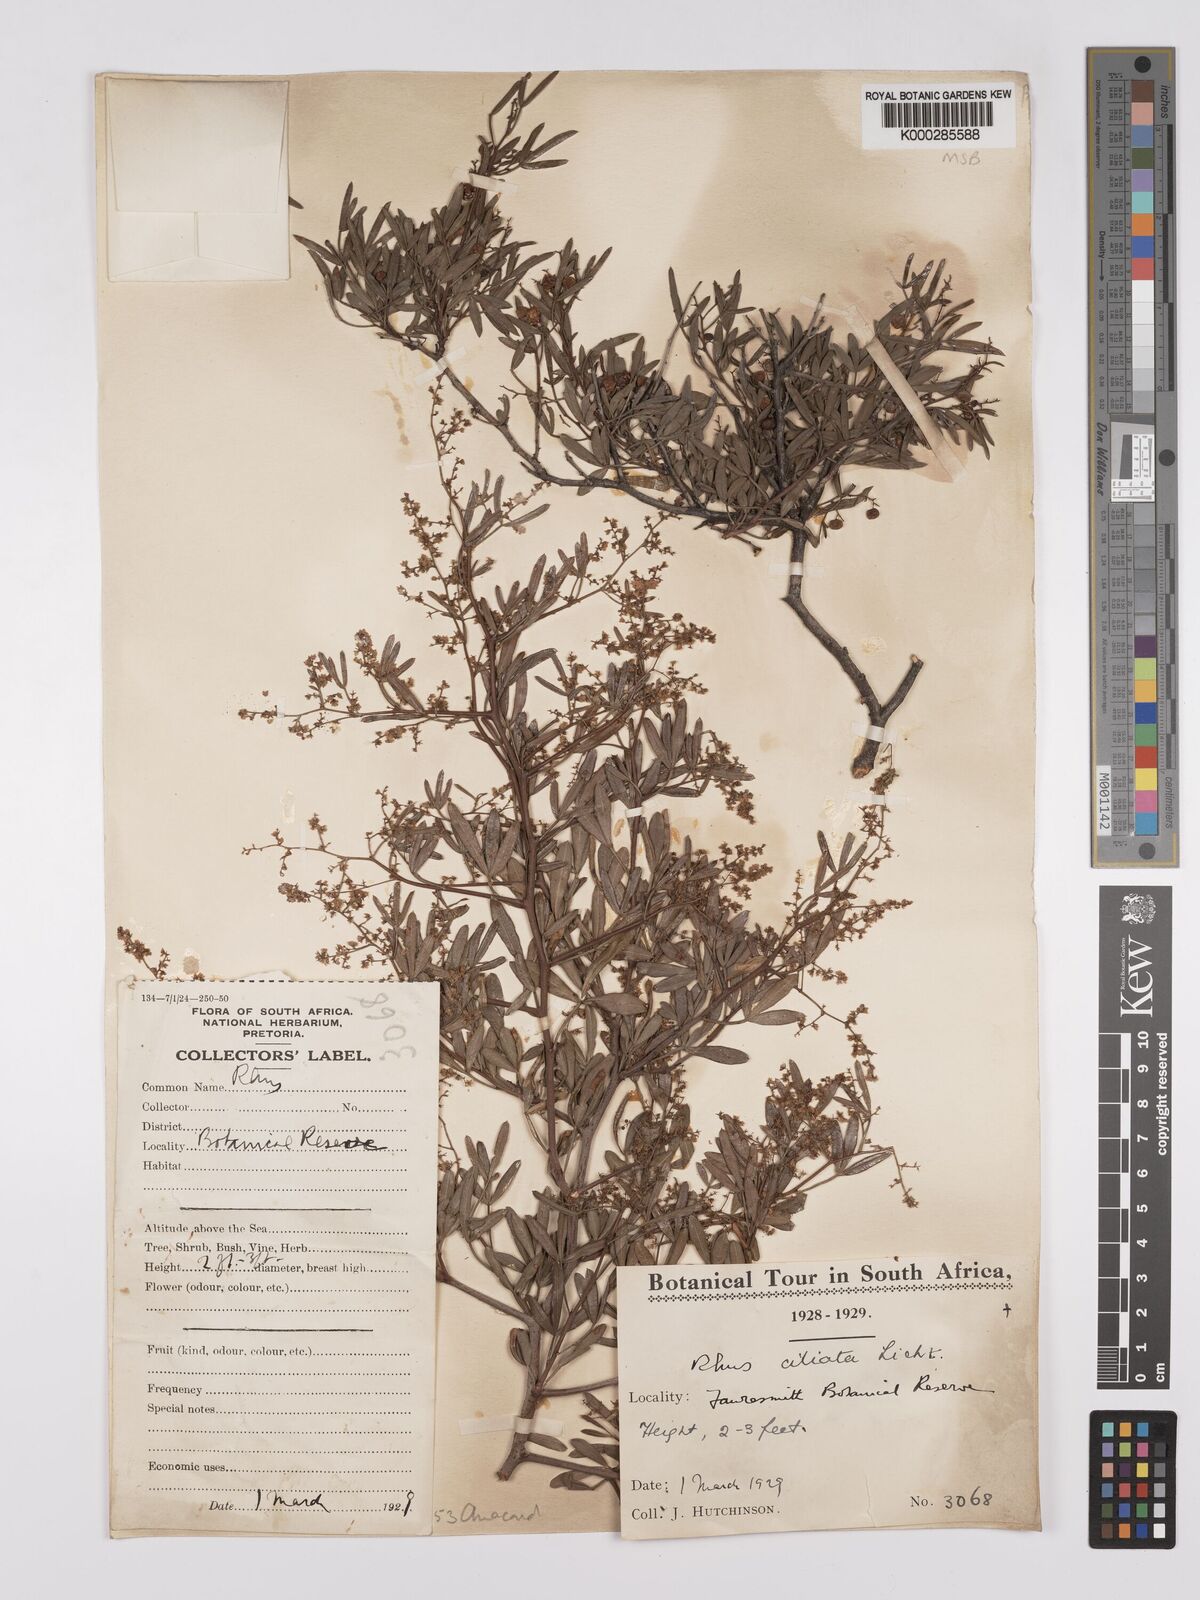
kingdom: Plantae
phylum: Tracheophyta
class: Magnoliopsida
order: Sapindales
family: Anacardiaceae
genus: Searsia
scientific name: Searsia ciliata
